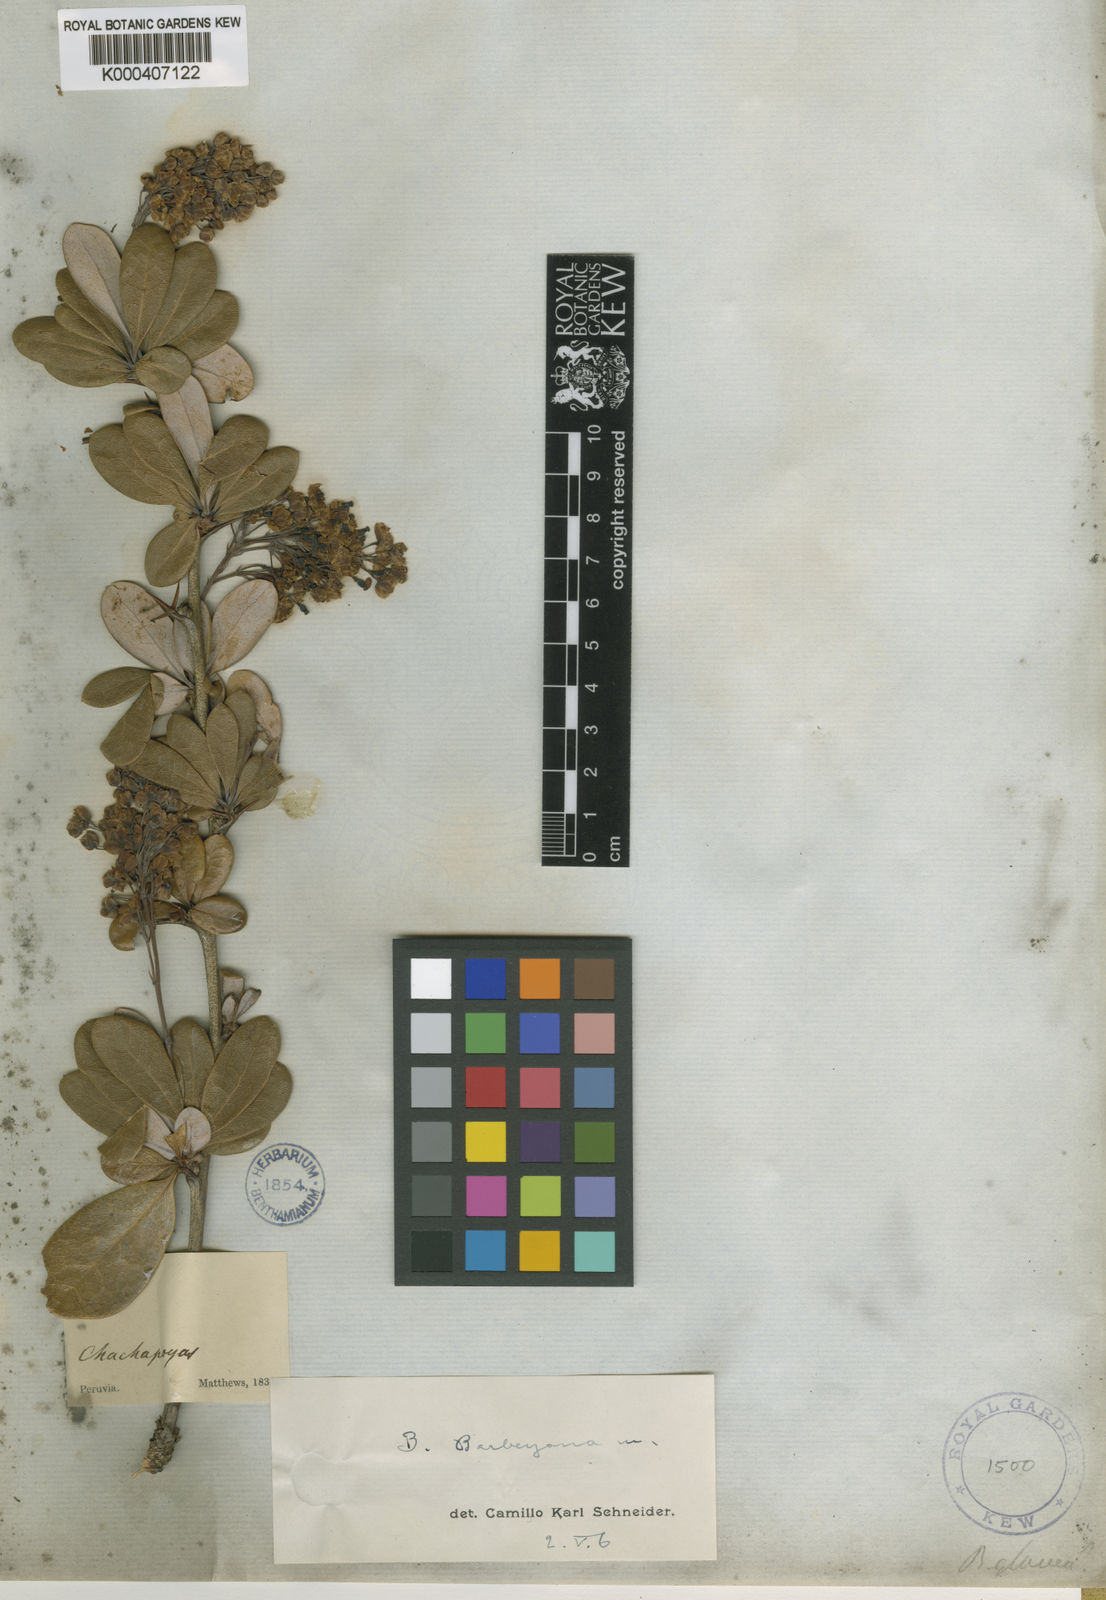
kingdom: Plantae
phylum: Tracheophyta
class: Magnoliopsida
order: Ranunculales
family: Berberidaceae
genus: Berberis
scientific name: Berberis barbeyana
